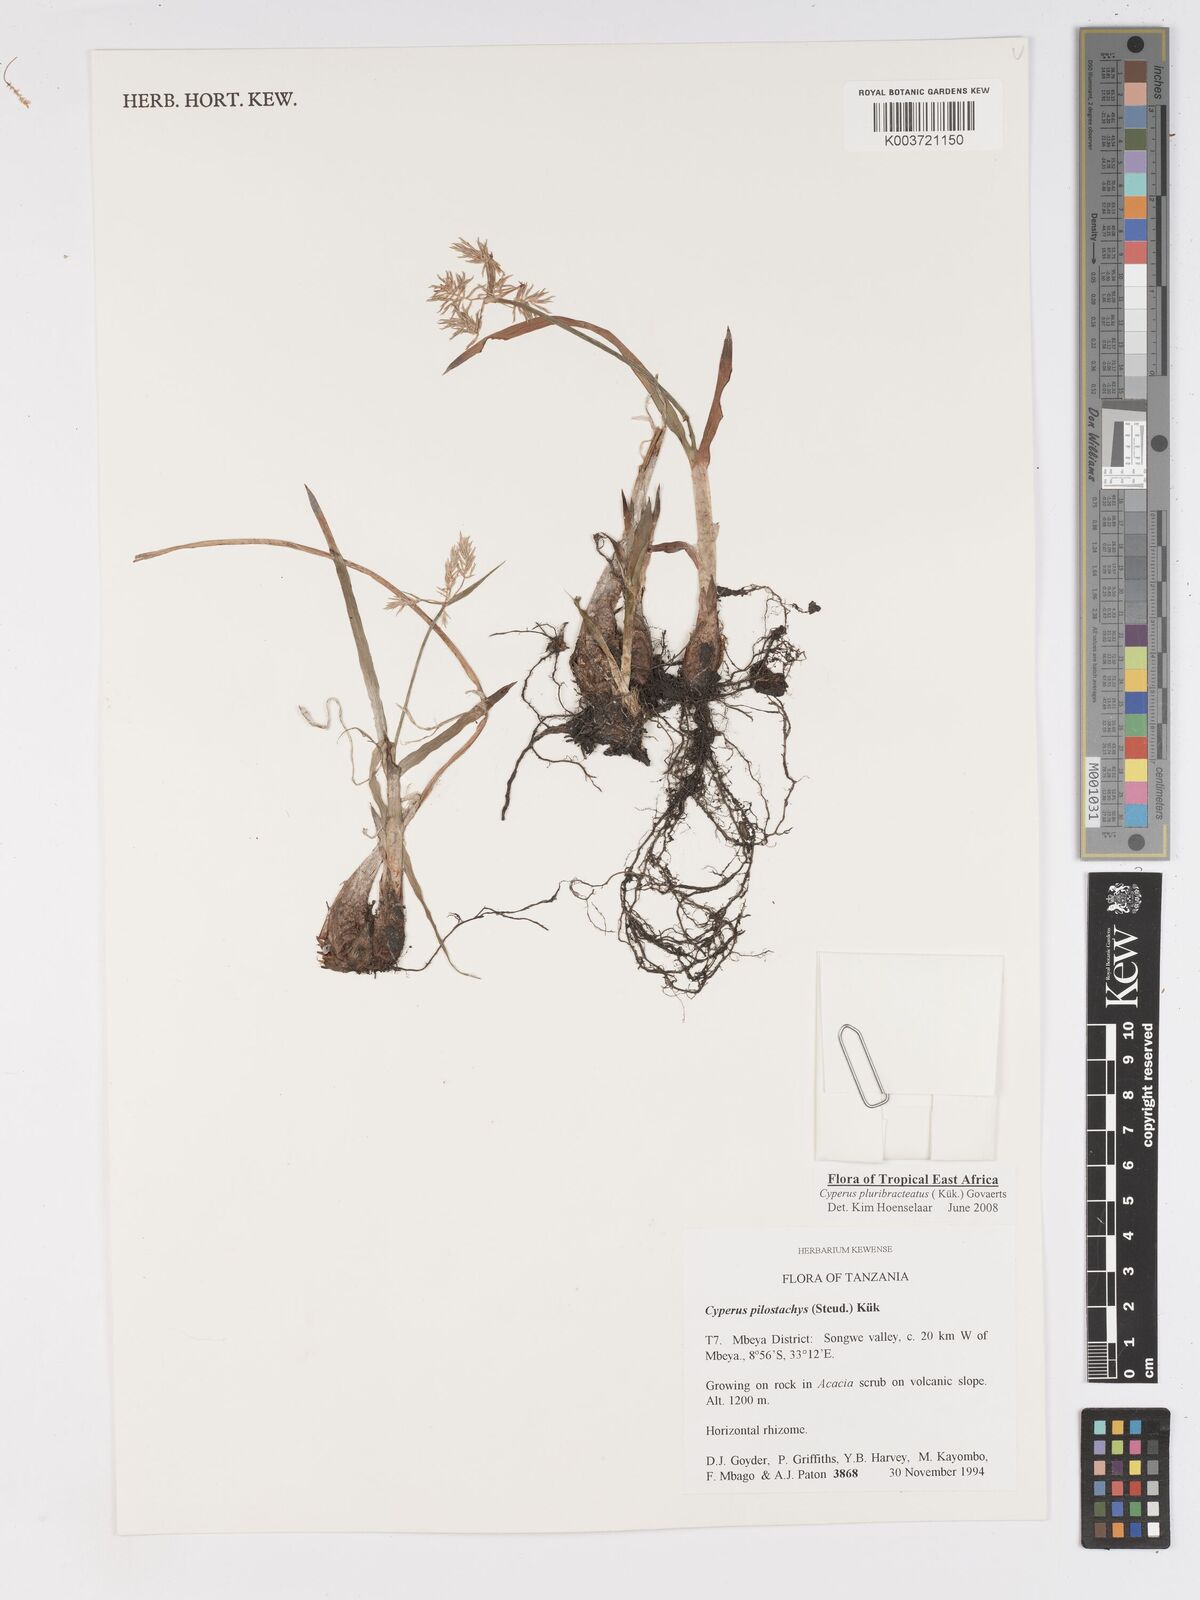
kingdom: Plantae
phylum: Tracheophyta
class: Liliopsida
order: Poales
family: Cyperaceae
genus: Cyperus
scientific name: Cyperus trigonellus
